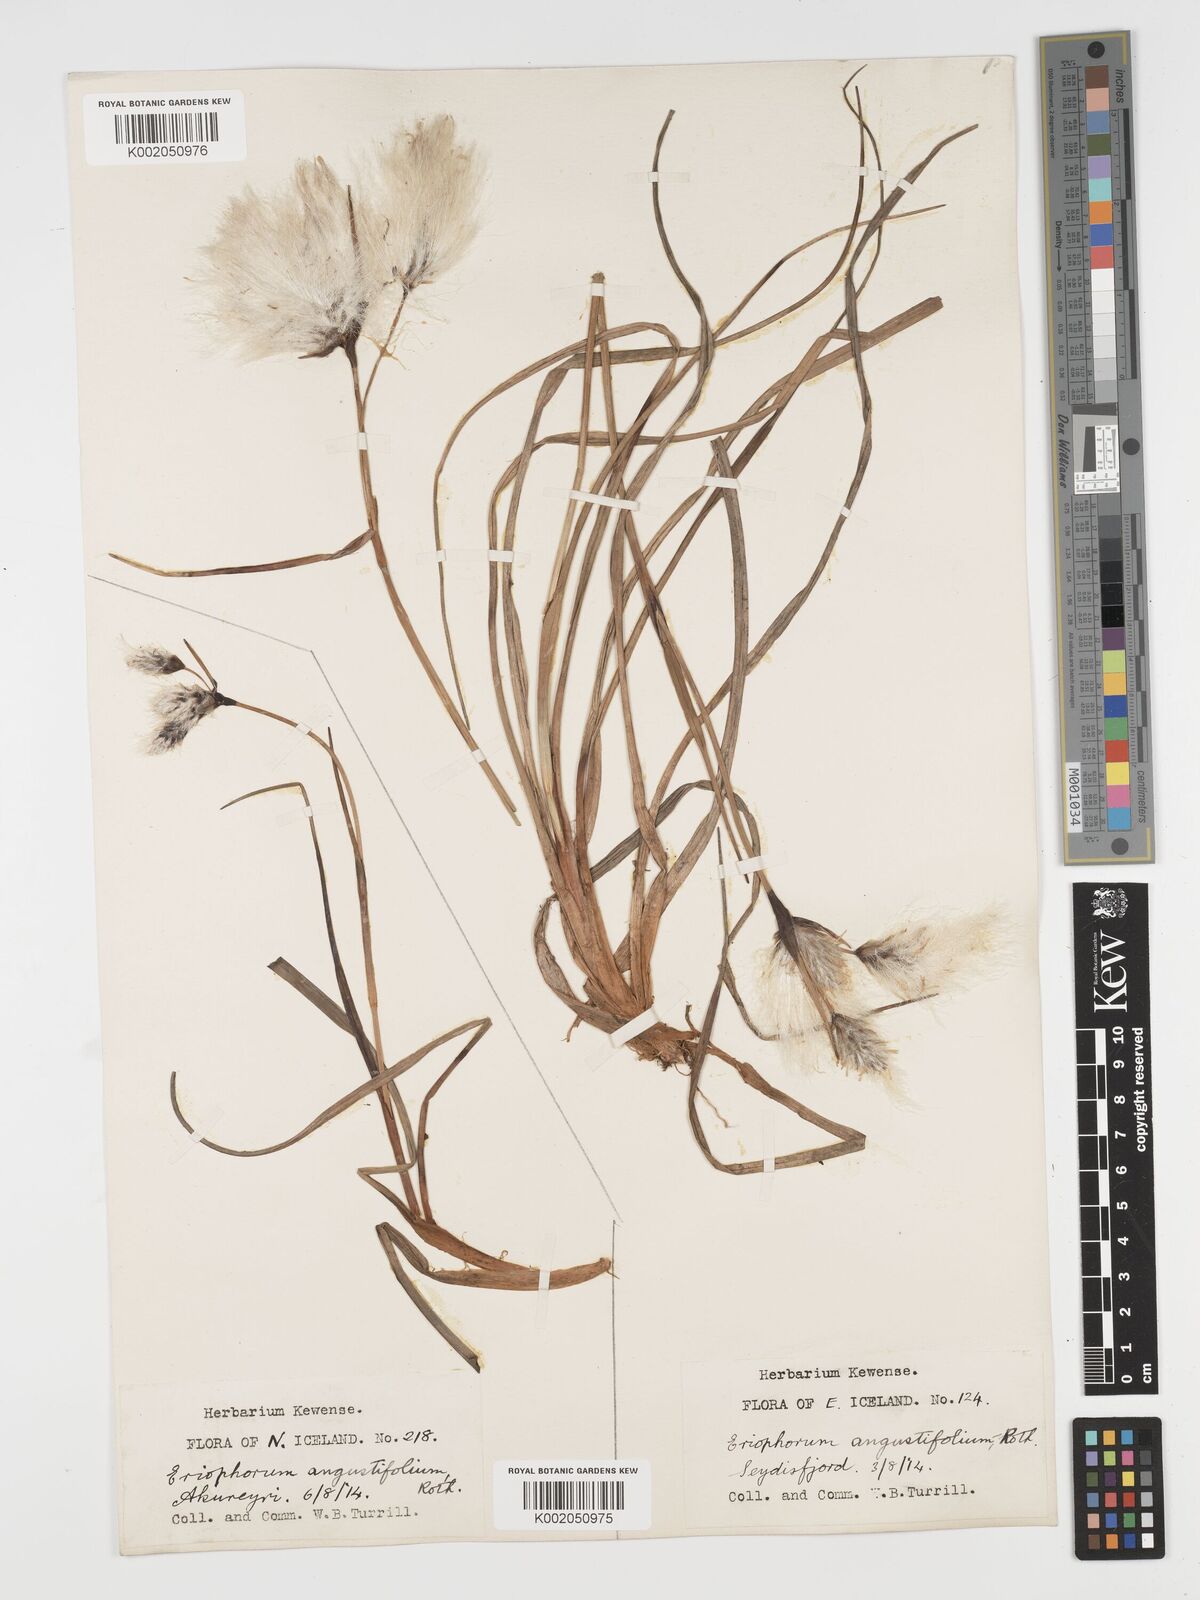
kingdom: Plantae
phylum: Tracheophyta
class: Liliopsida
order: Poales
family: Cyperaceae
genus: Eriophorum
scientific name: Eriophorum angustifolium
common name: Common cottongrass
